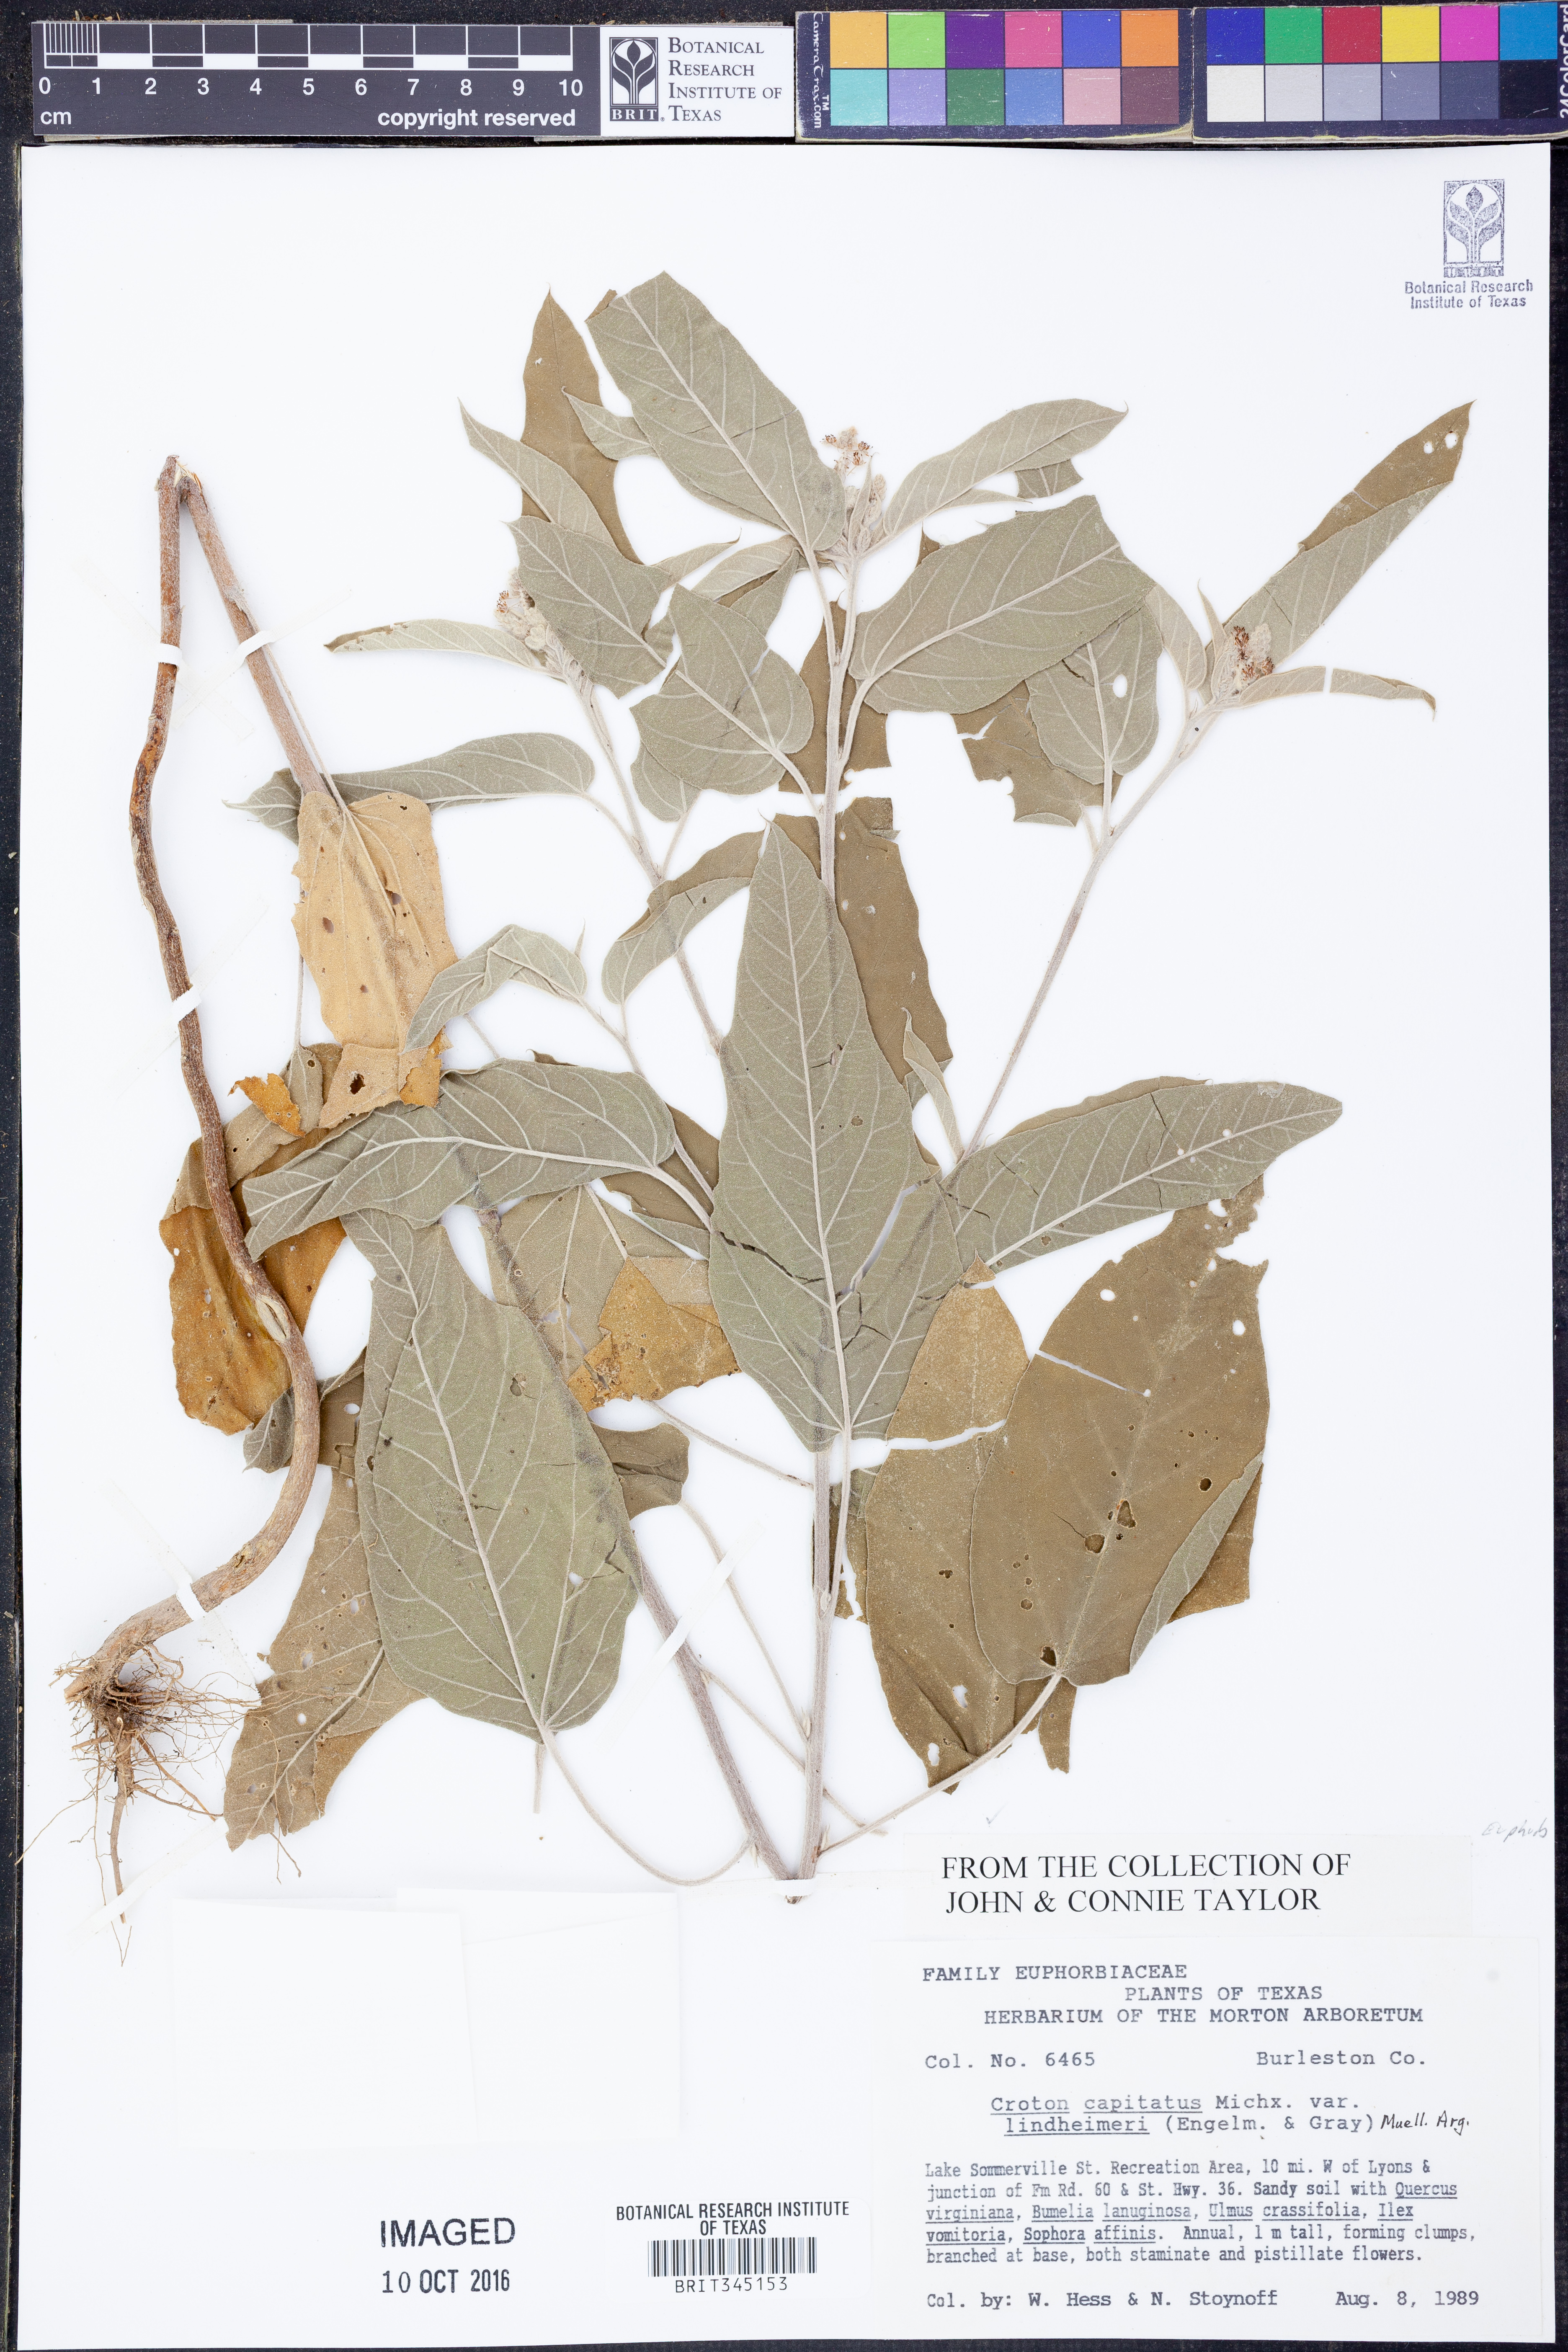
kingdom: Plantae
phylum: Tracheophyta
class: Magnoliopsida
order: Malpighiales
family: Euphorbiaceae
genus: Croton
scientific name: Croton lindheimeri
